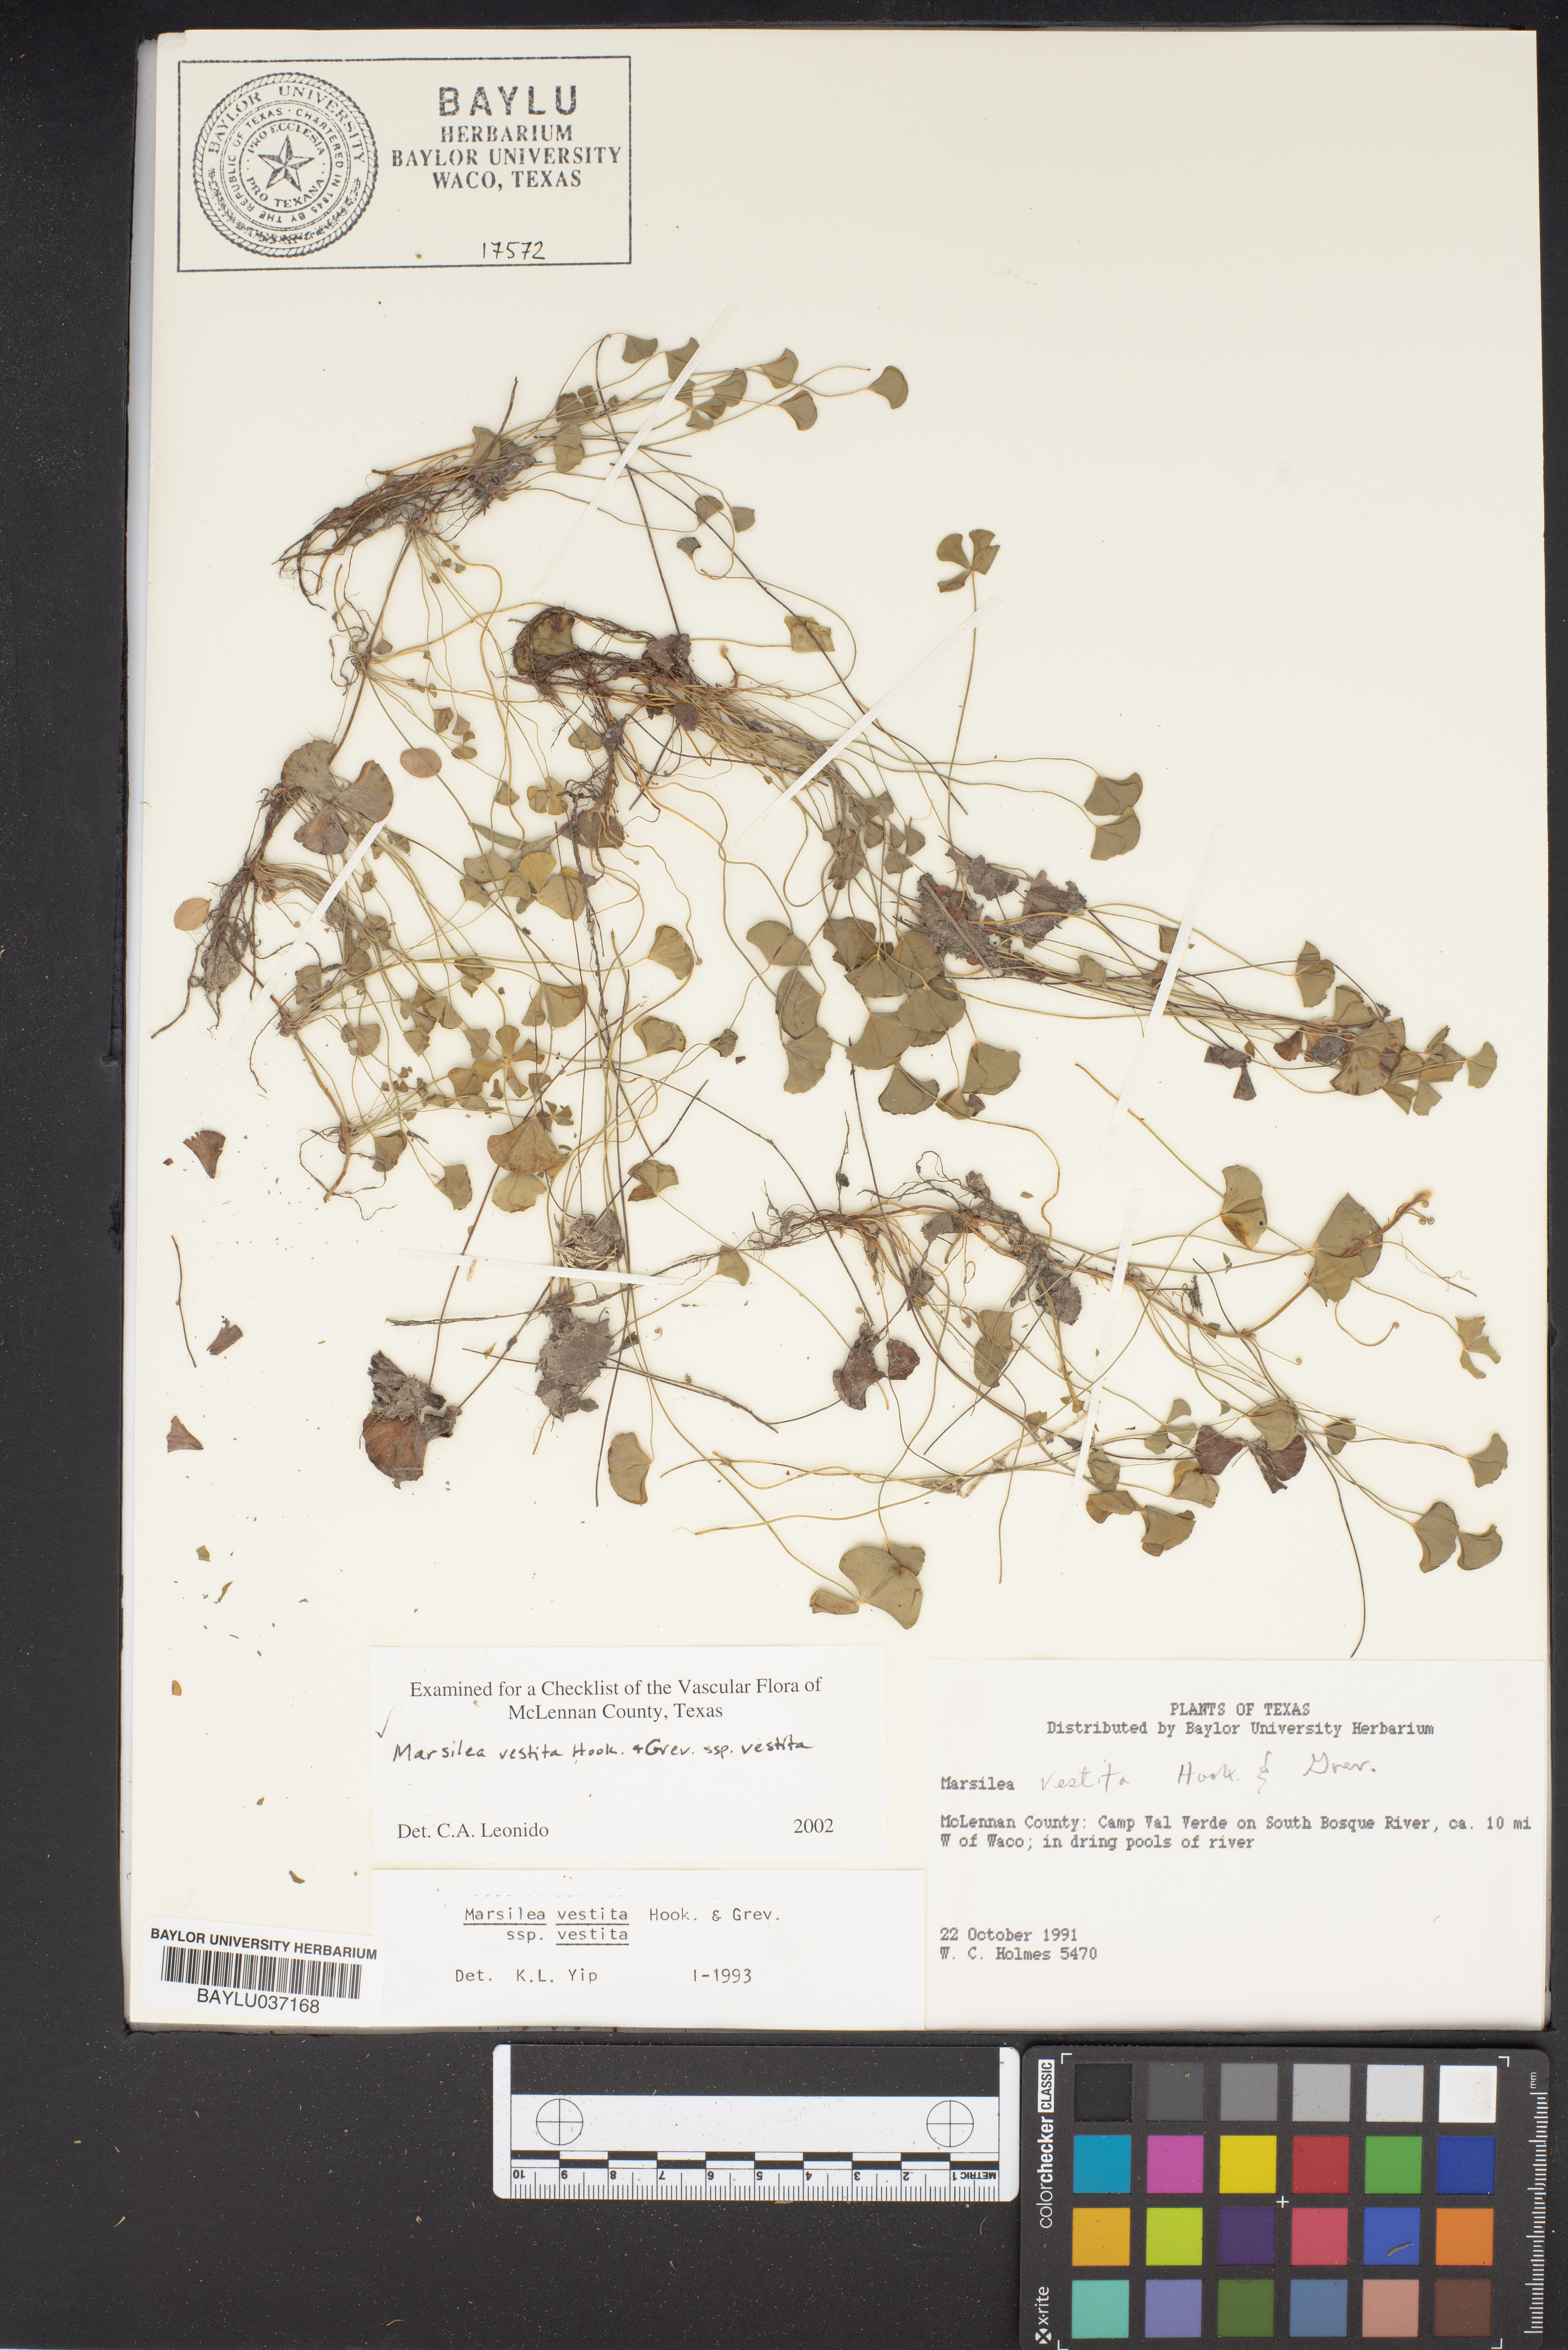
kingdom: Plantae
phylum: Tracheophyta
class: Polypodiopsida
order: Salviniales
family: Marsileaceae
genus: Marsilea
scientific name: Marsilea vestita
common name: Hooked-pepperwort
